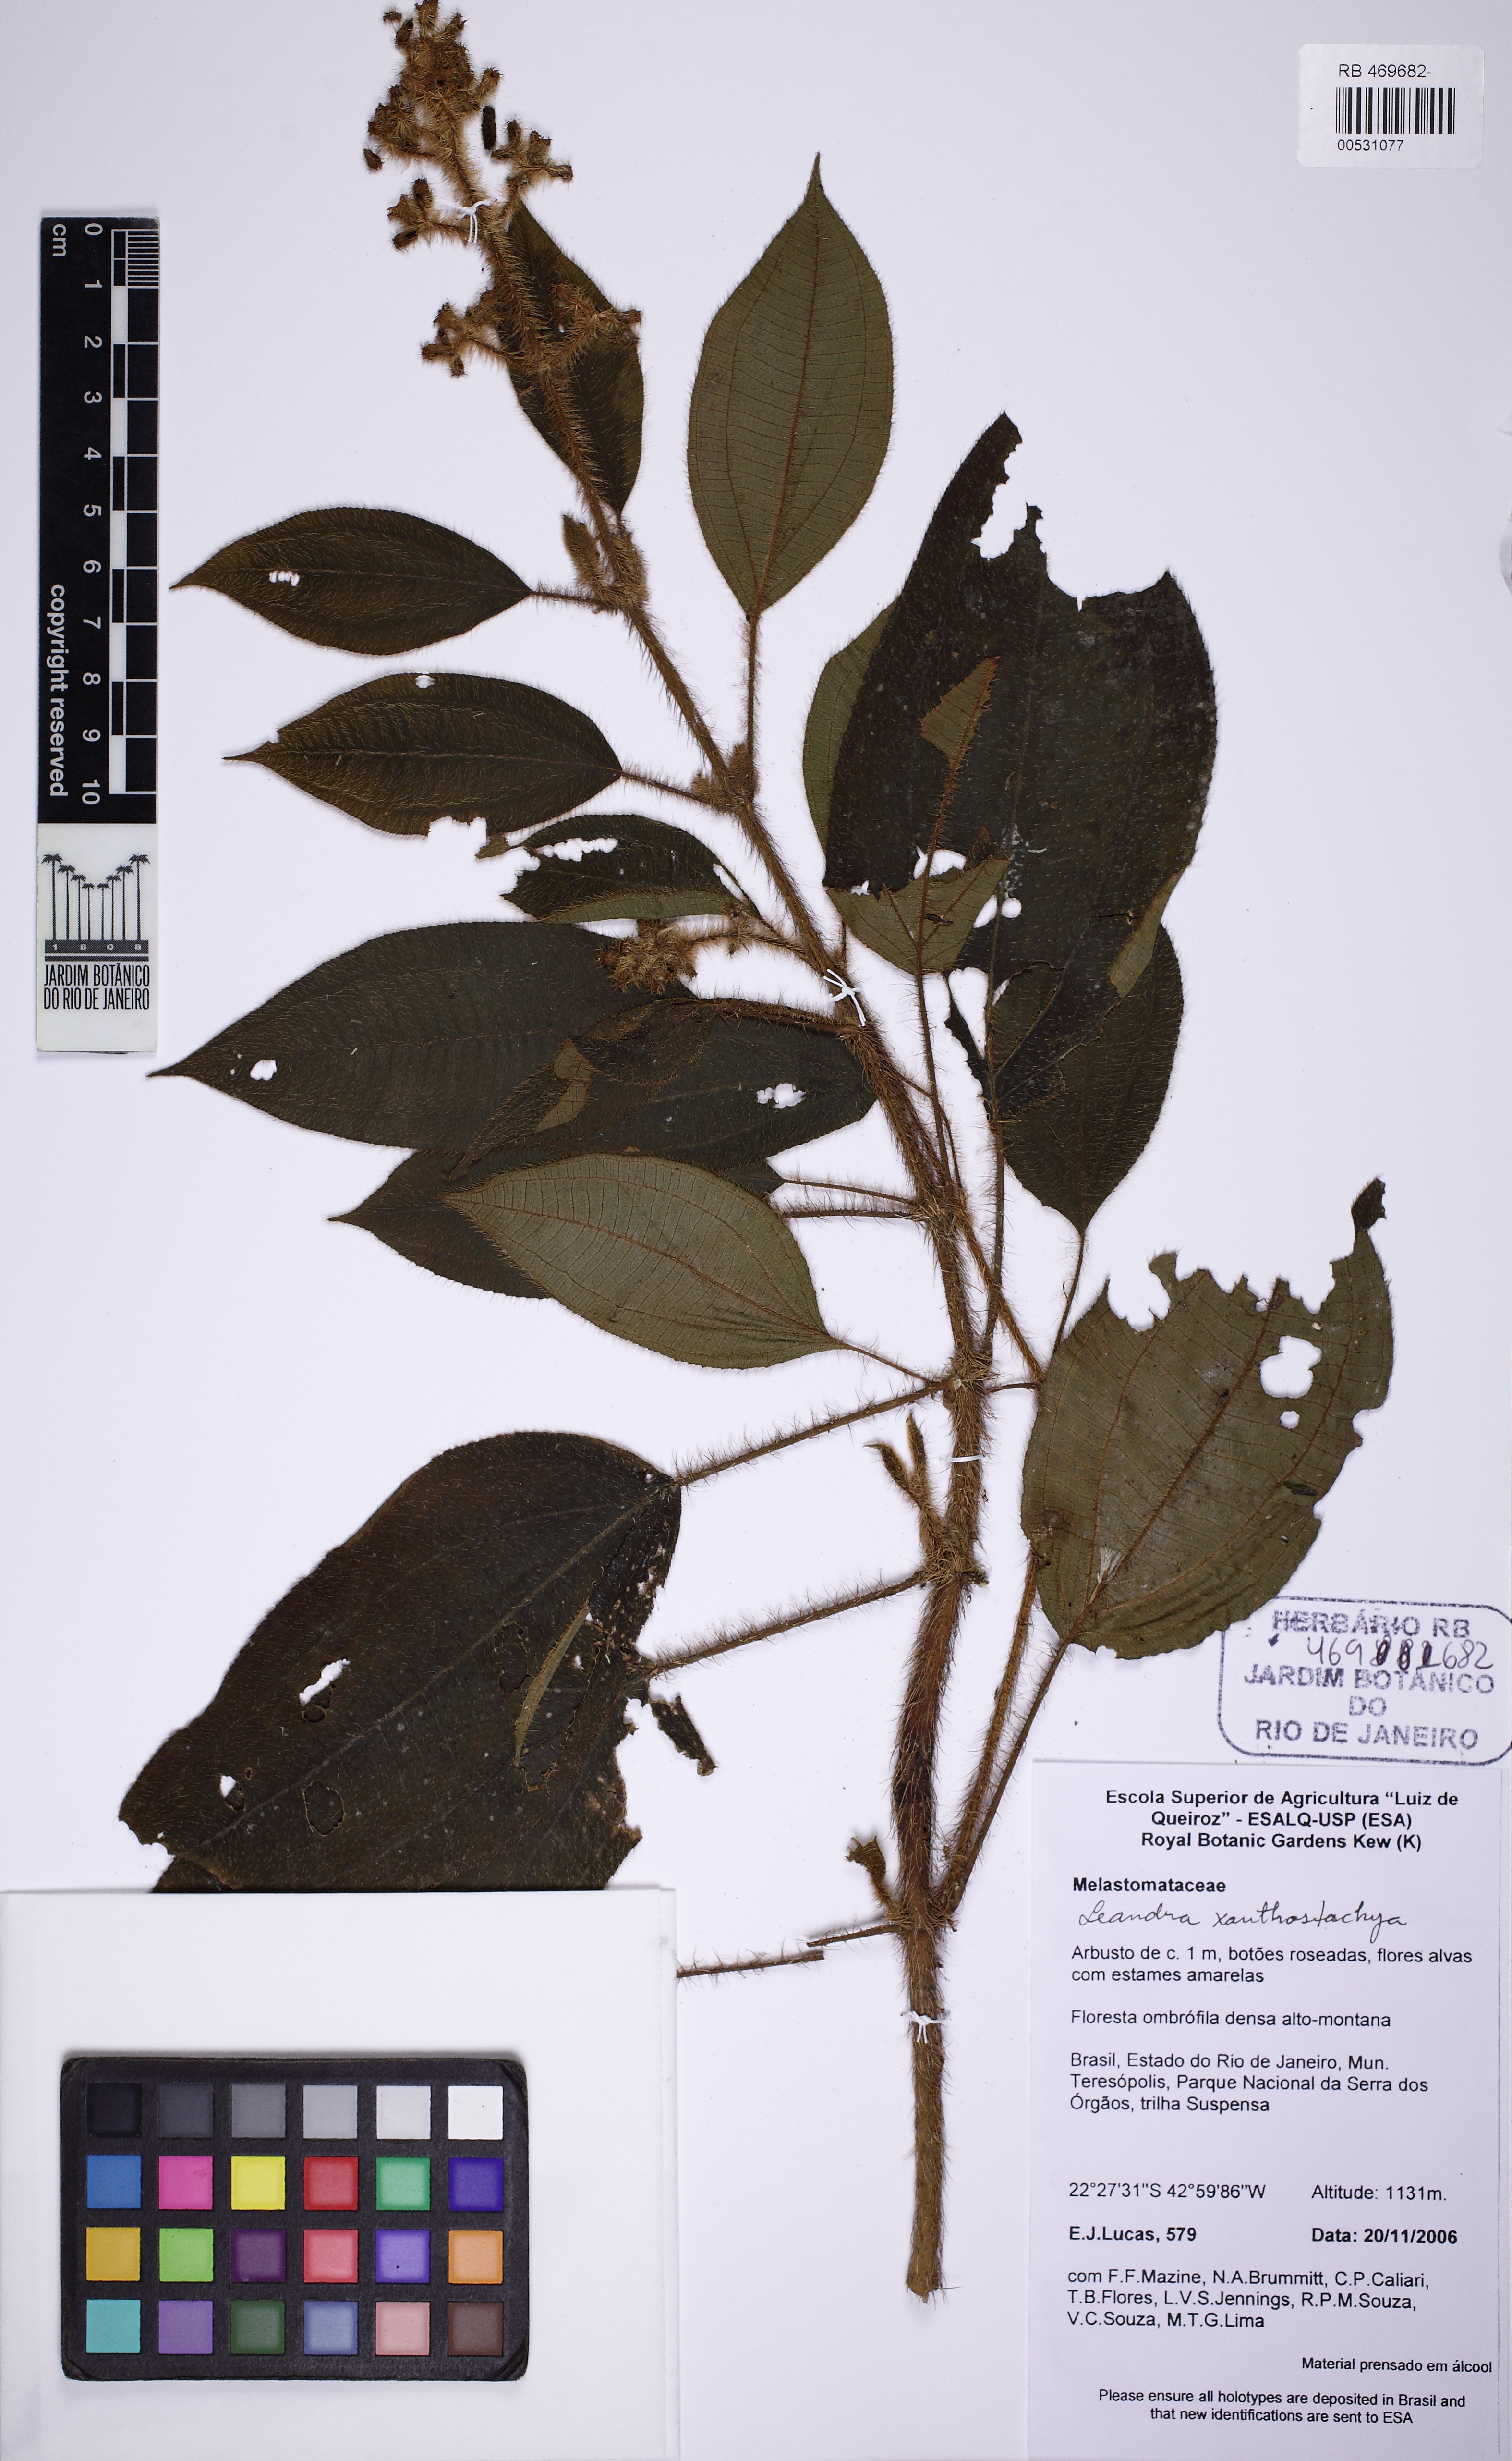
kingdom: Plantae
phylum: Tracheophyta
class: Magnoliopsida
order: Myrtales
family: Melastomataceae
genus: Miconia
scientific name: Miconia xanthostachya
